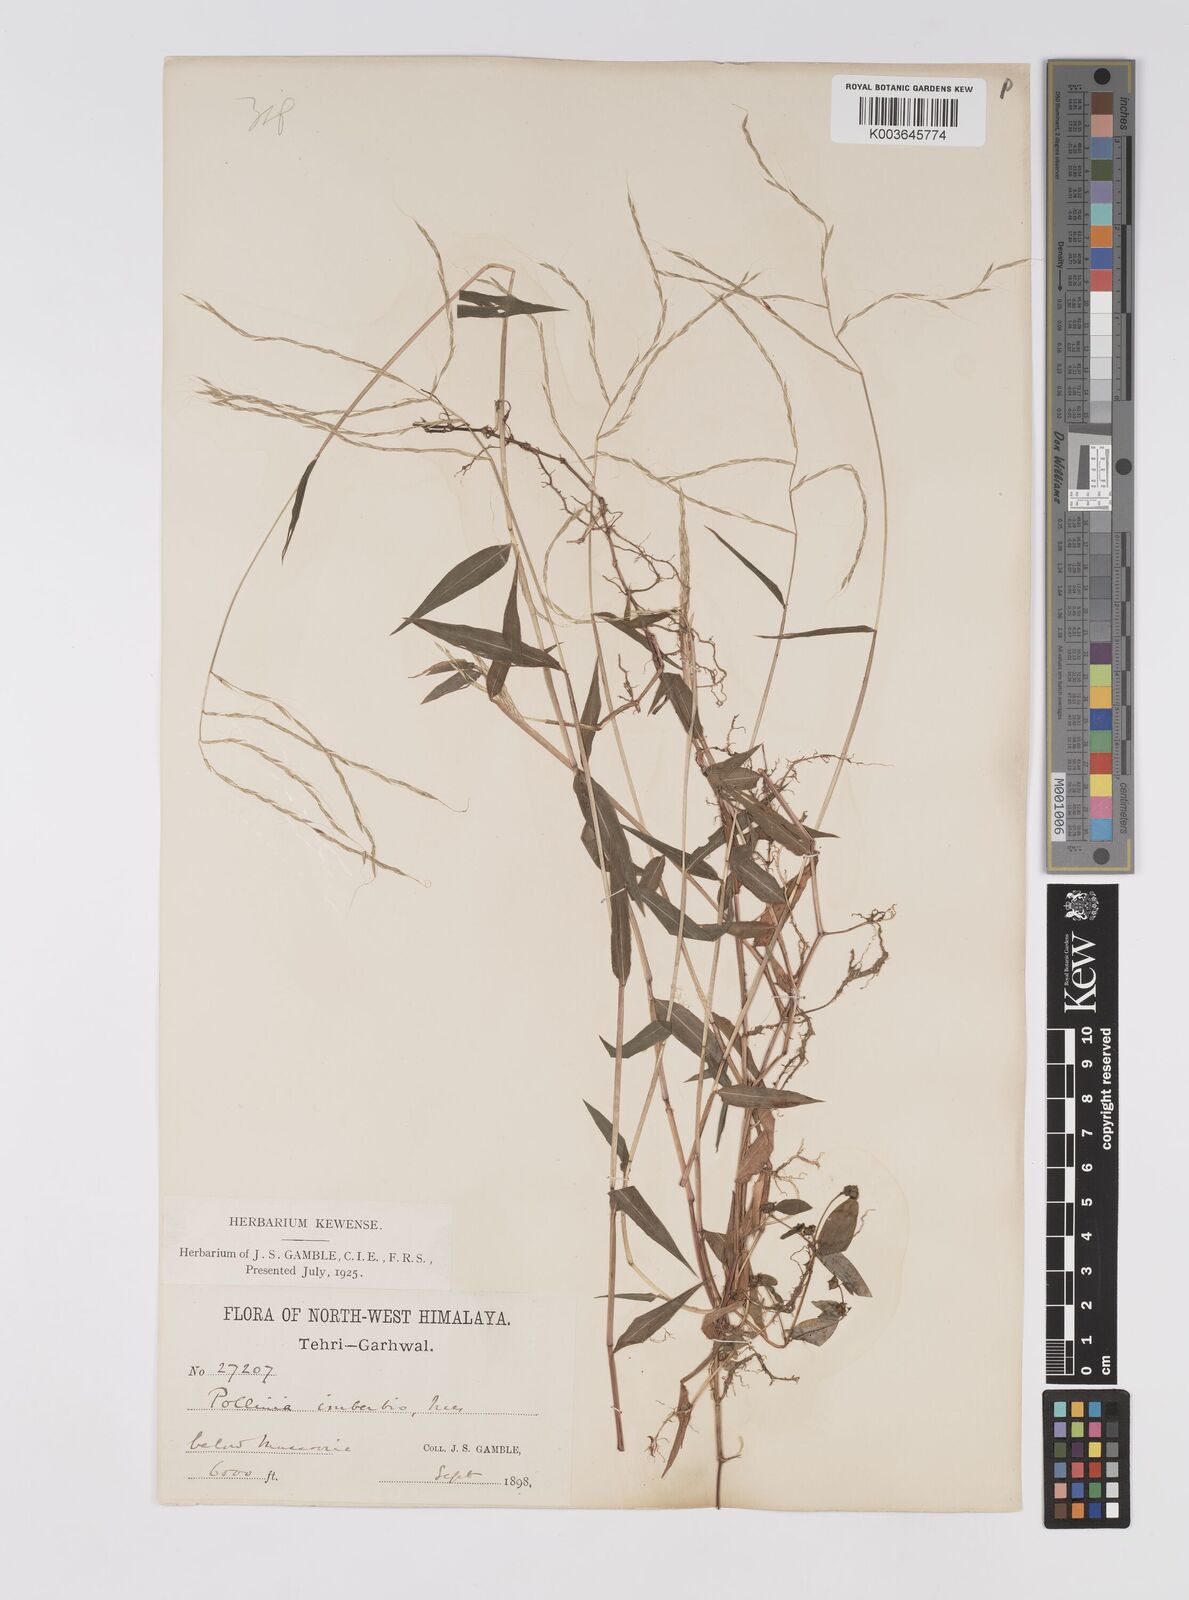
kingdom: Plantae
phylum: Tracheophyta
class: Liliopsida
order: Poales
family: Poaceae
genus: Microstegium
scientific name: Microstegium nudum
